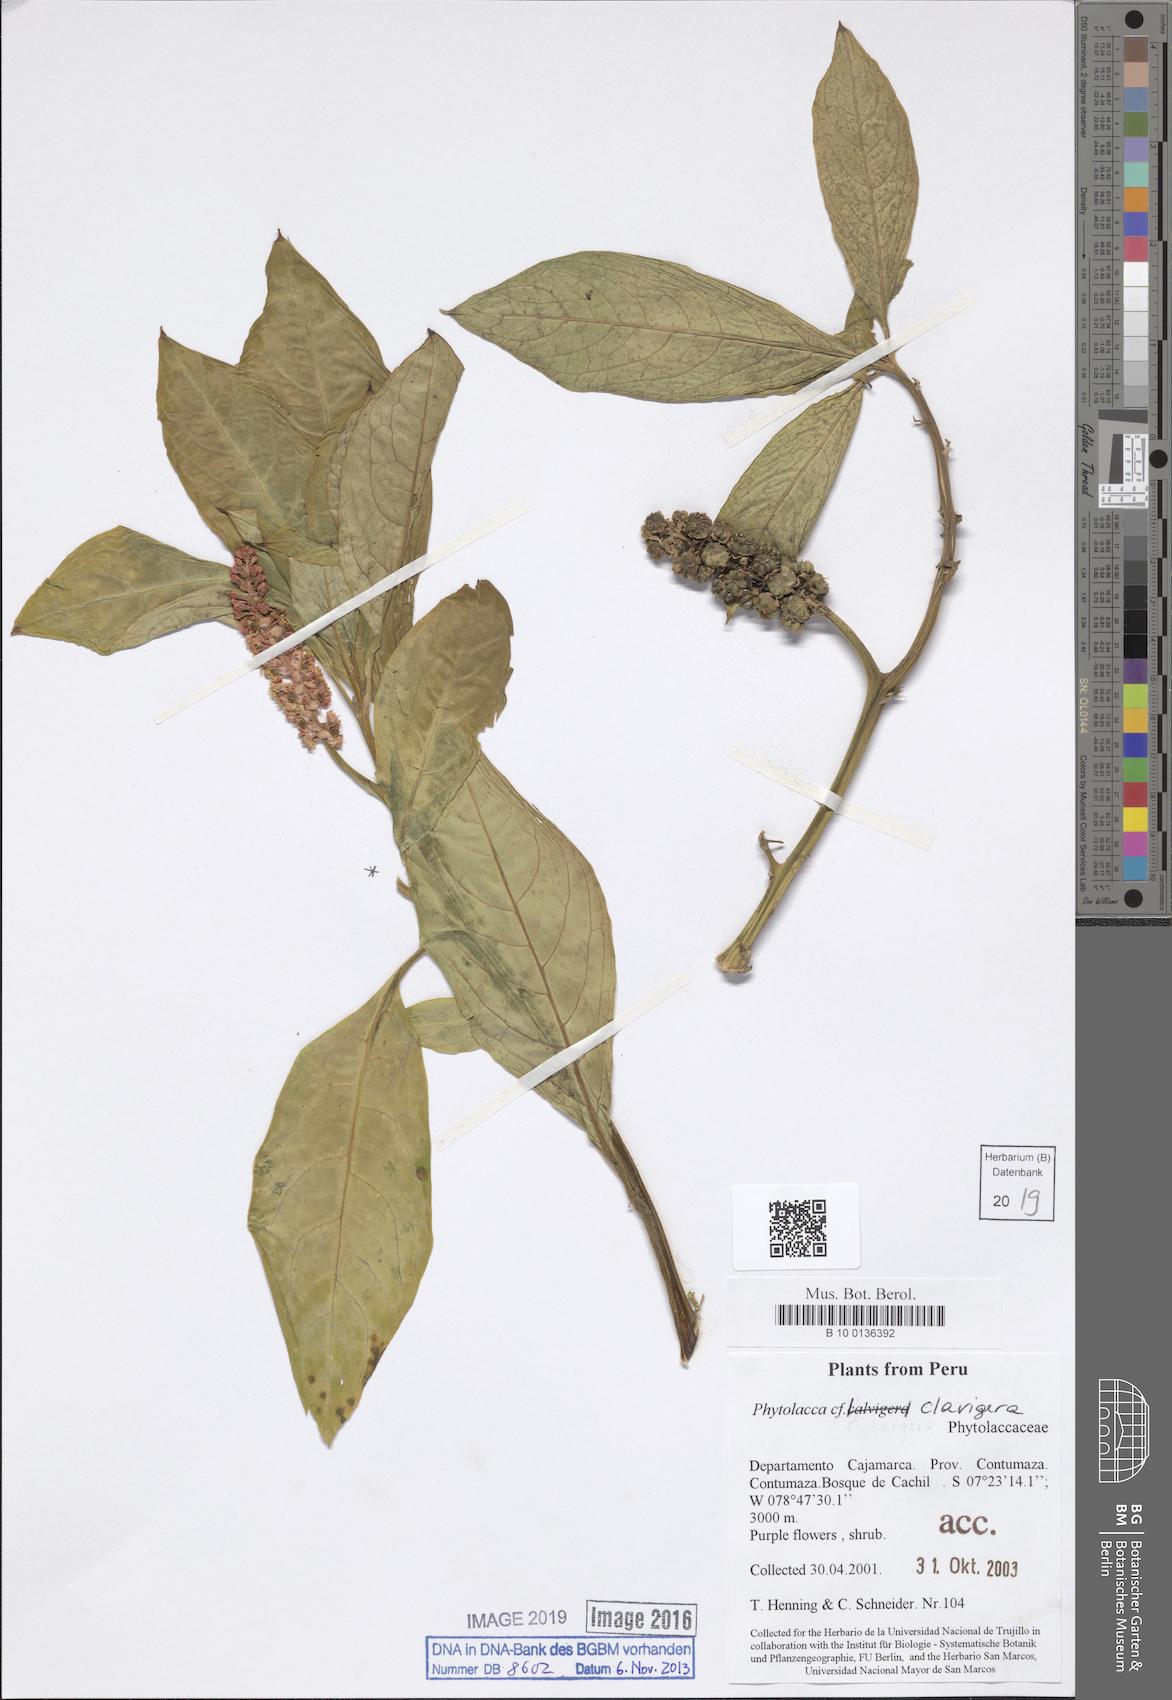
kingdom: Plantae
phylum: Tracheophyta
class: Magnoliopsida
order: Caryophyllales
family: Phytolaccaceae
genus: Phytolacca
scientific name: Phytolacca polyandra
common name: Chinese pokeweed
